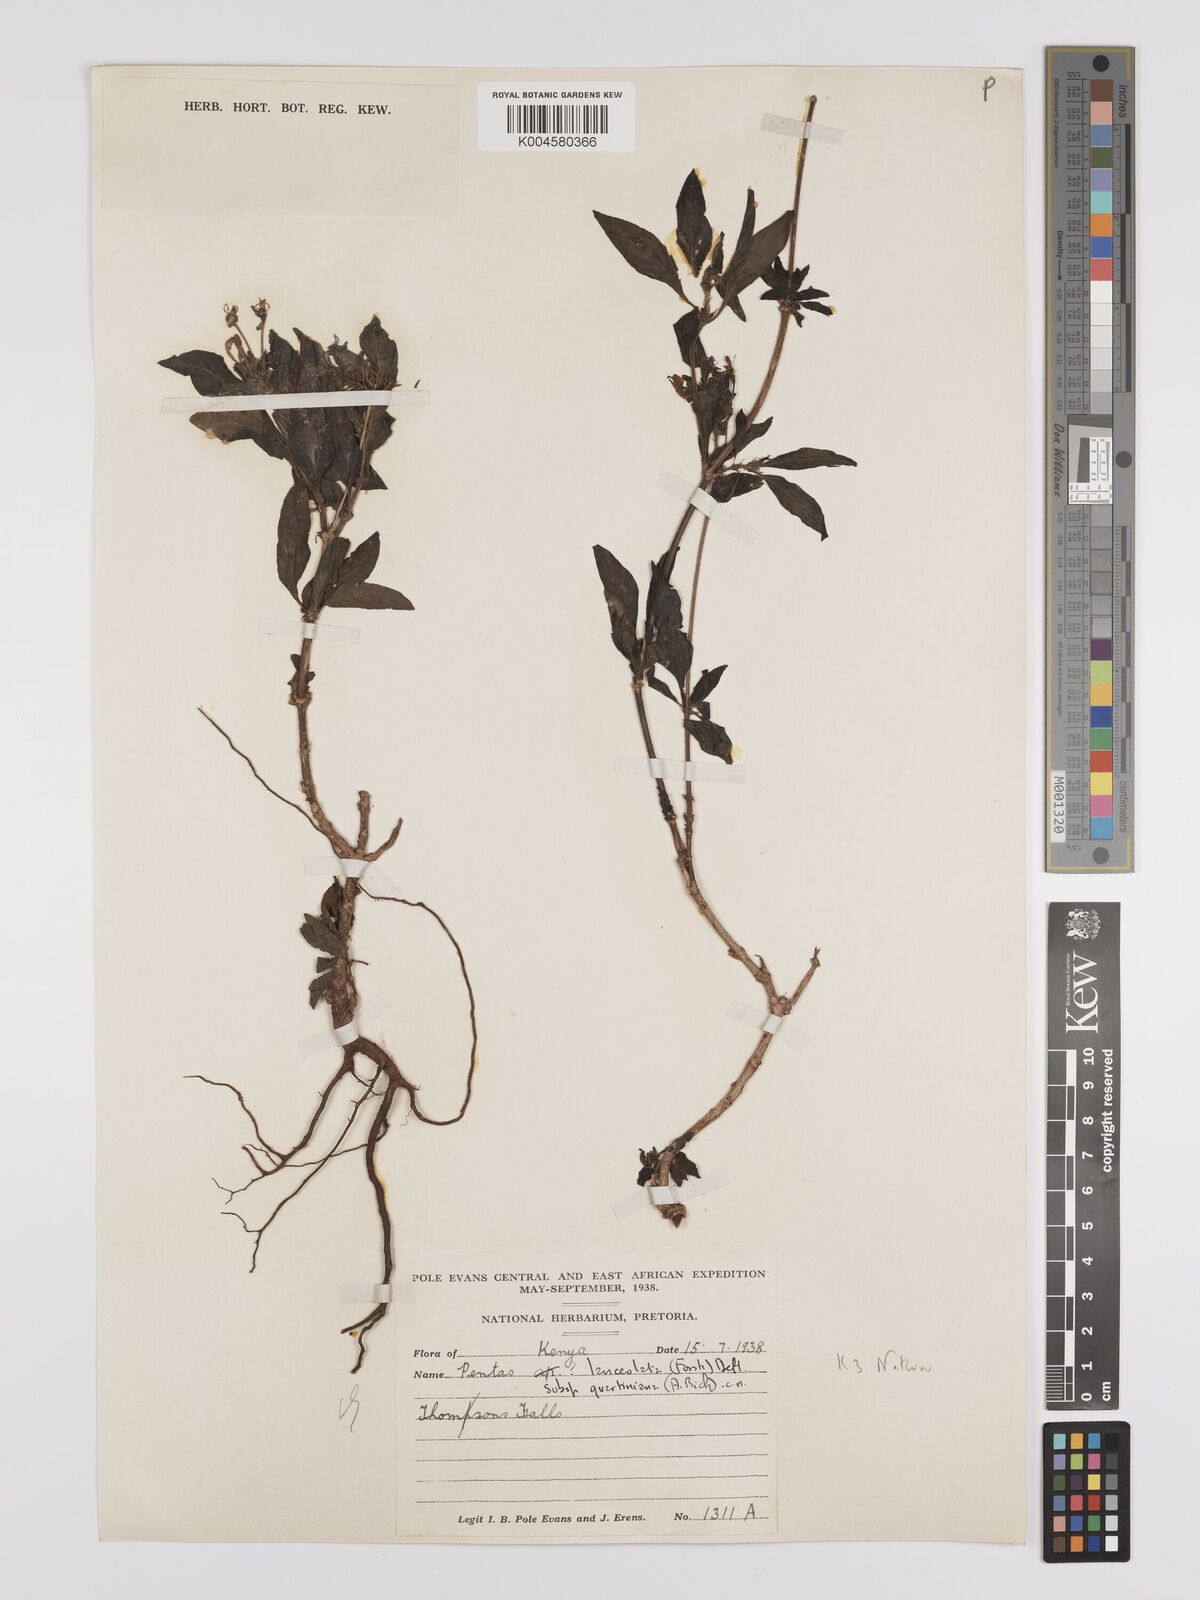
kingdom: Plantae
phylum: Tracheophyta
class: Magnoliopsida
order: Gentianales
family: Rubiaceae
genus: Pentas
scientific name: Pentas lanceolata
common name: Egyptian starcluster
